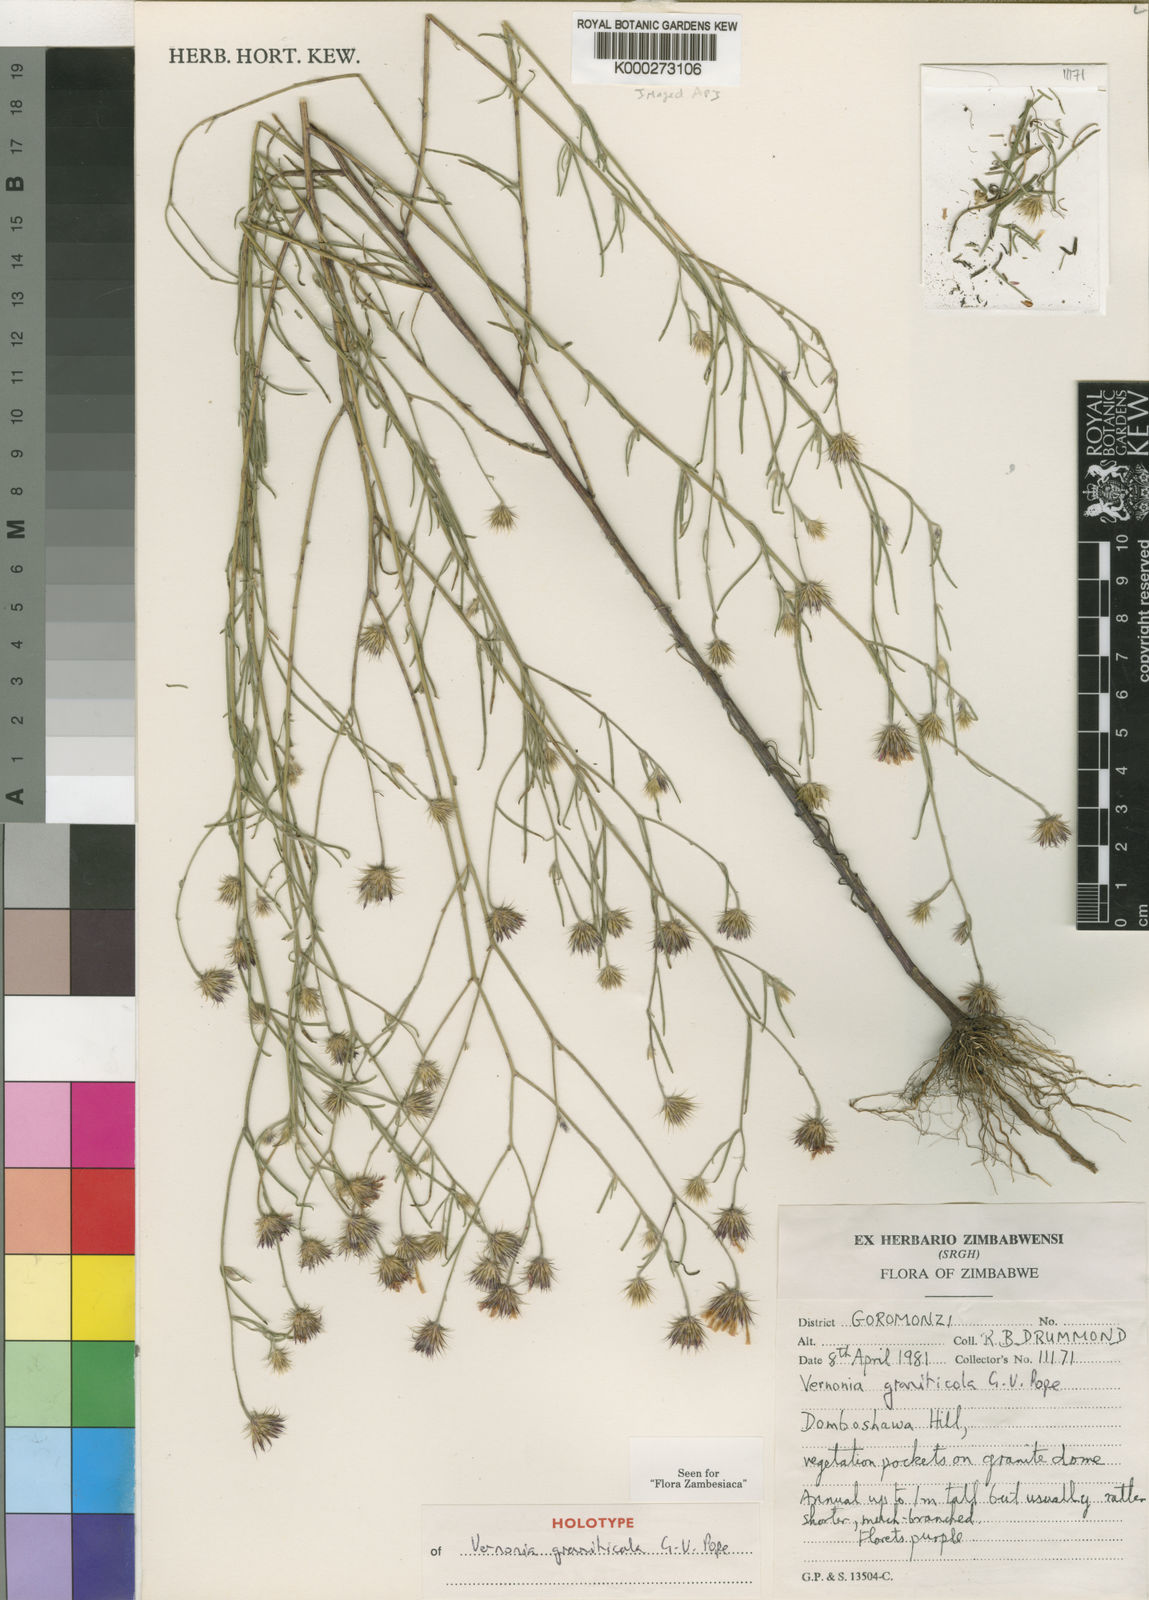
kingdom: Plantae
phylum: Tracheophyta
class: Magnoliopsida
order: Asterales
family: Asteraceae
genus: Vernonia
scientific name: Vernonia graniticola
